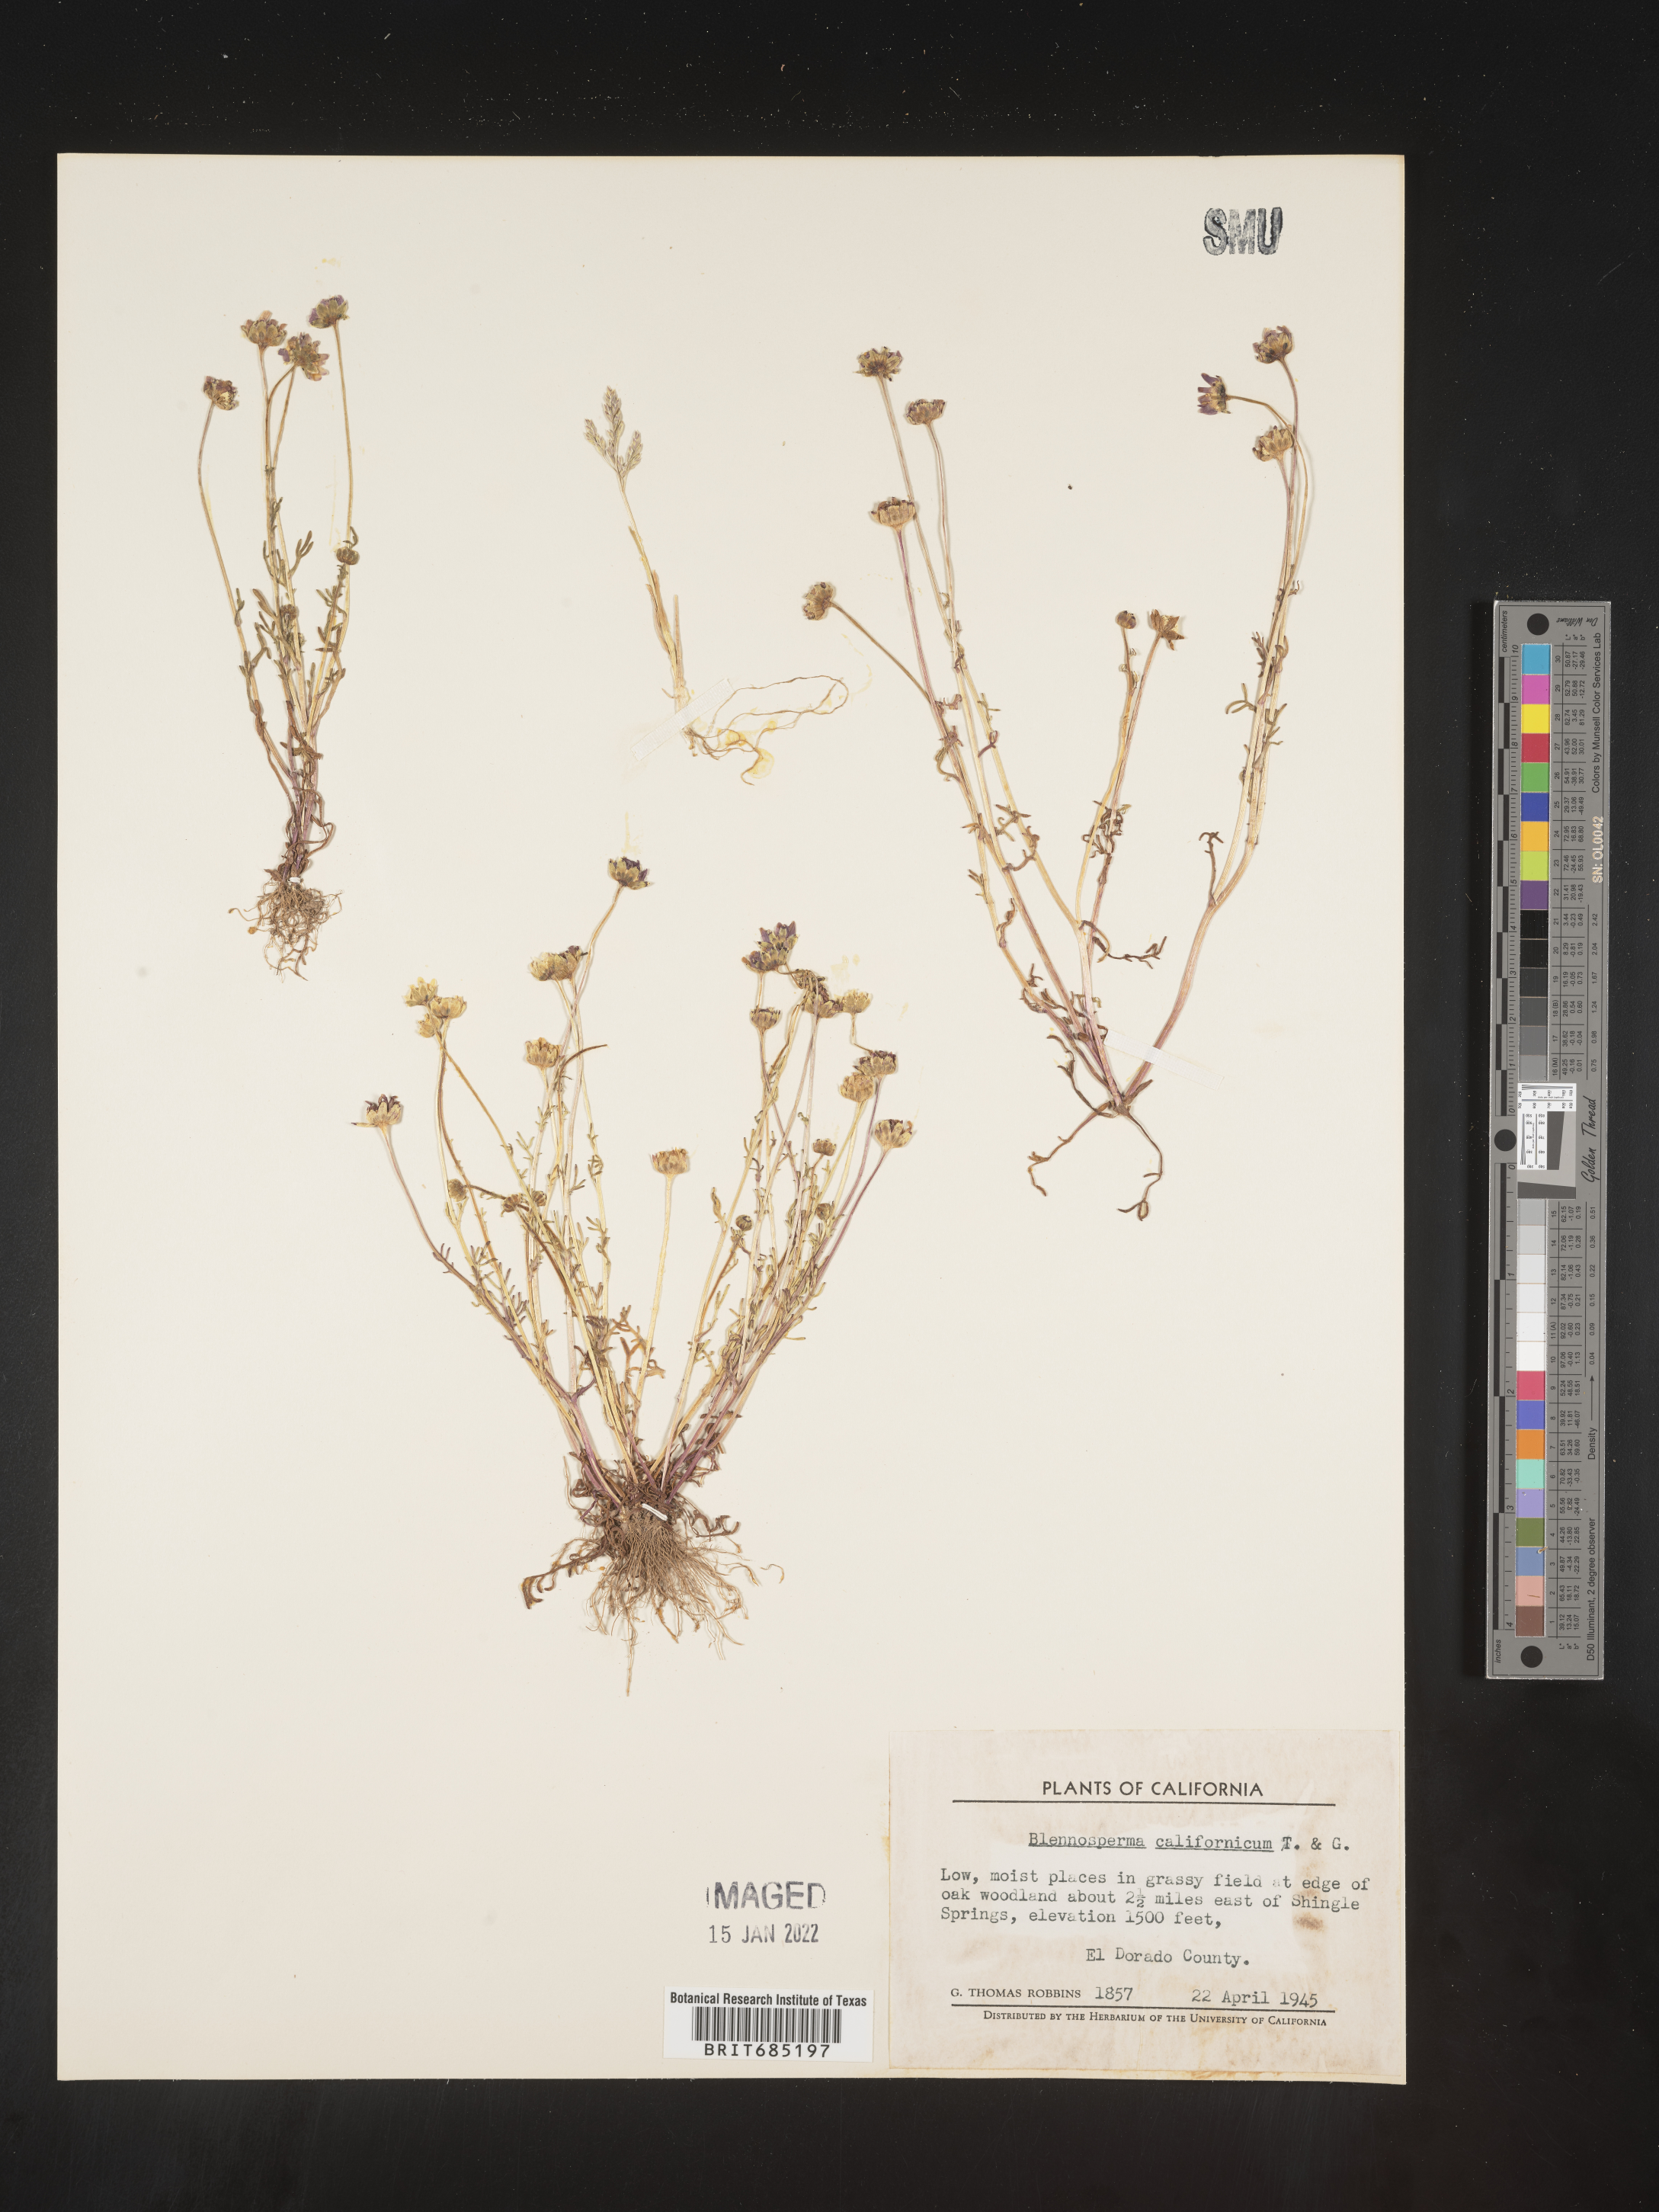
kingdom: Plantae
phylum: Tracheophyta
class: Magnoliopsida
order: Asterales
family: Asteraceae
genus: Blennosperma
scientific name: Blennosperma
